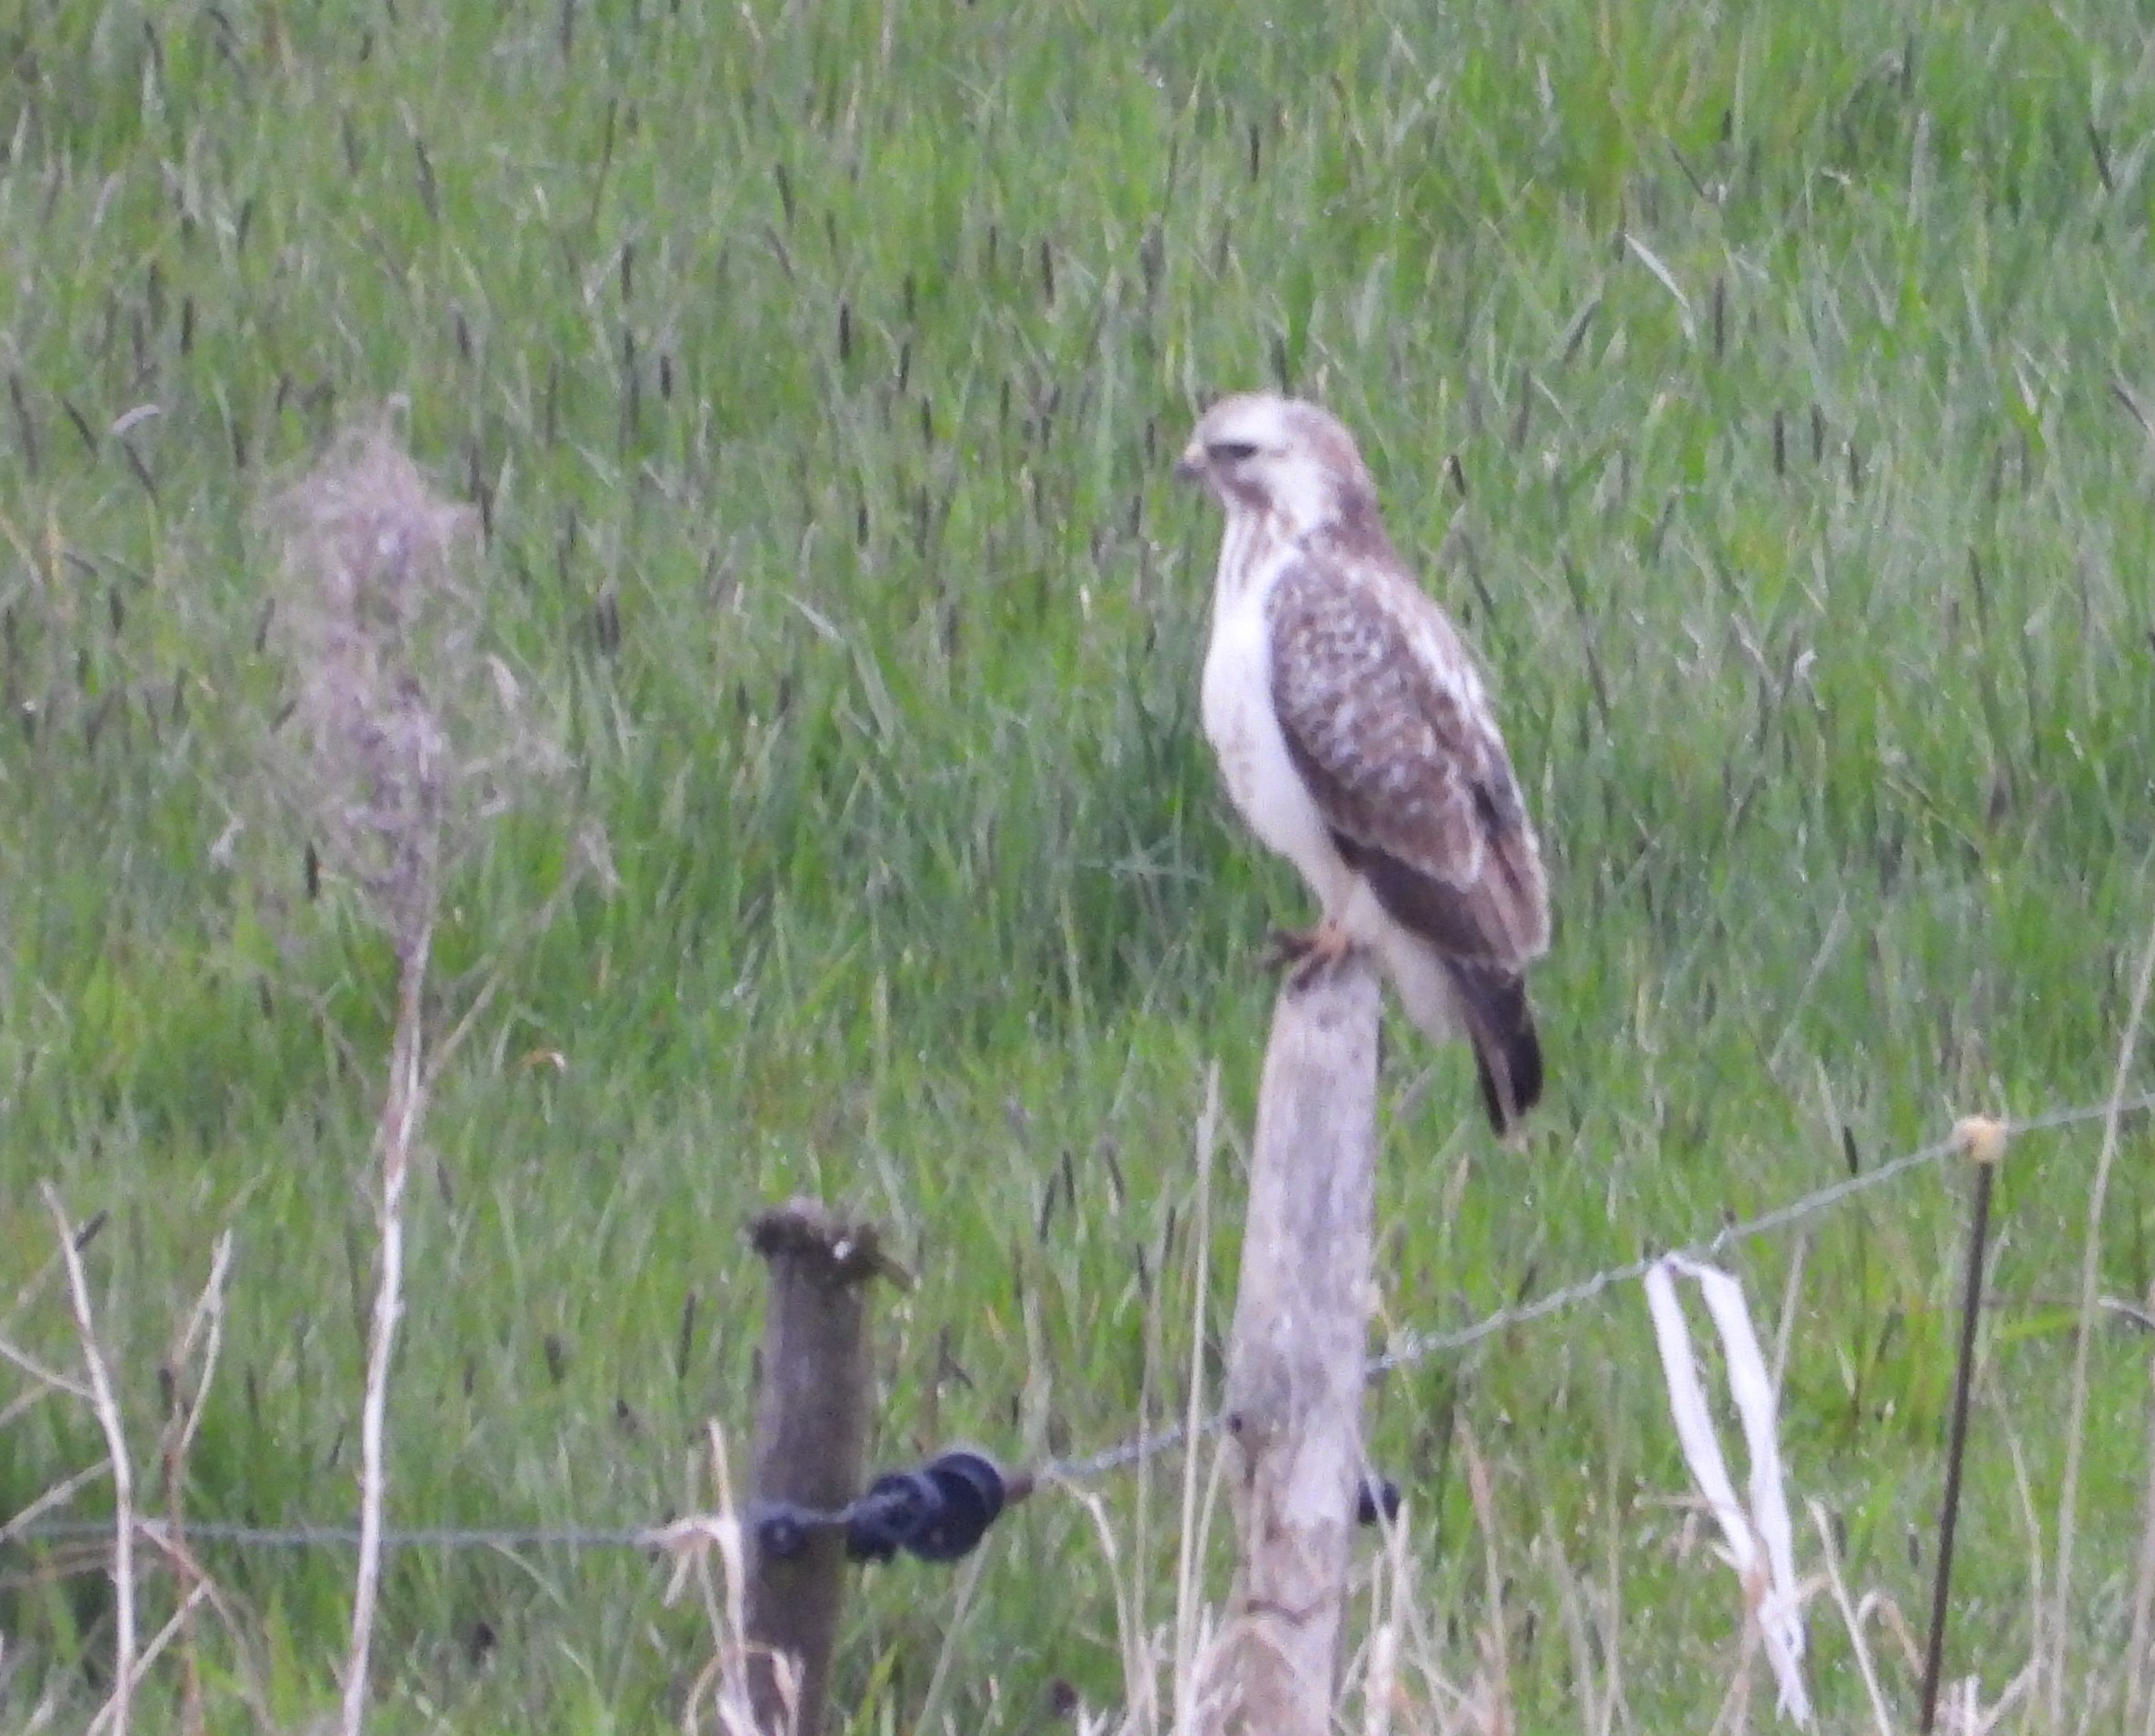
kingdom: Animalia
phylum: Chordata
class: Aves
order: Accipitriformes
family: Accipitridae
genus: Buteo
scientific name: Buteo buteo
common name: Musvåge
